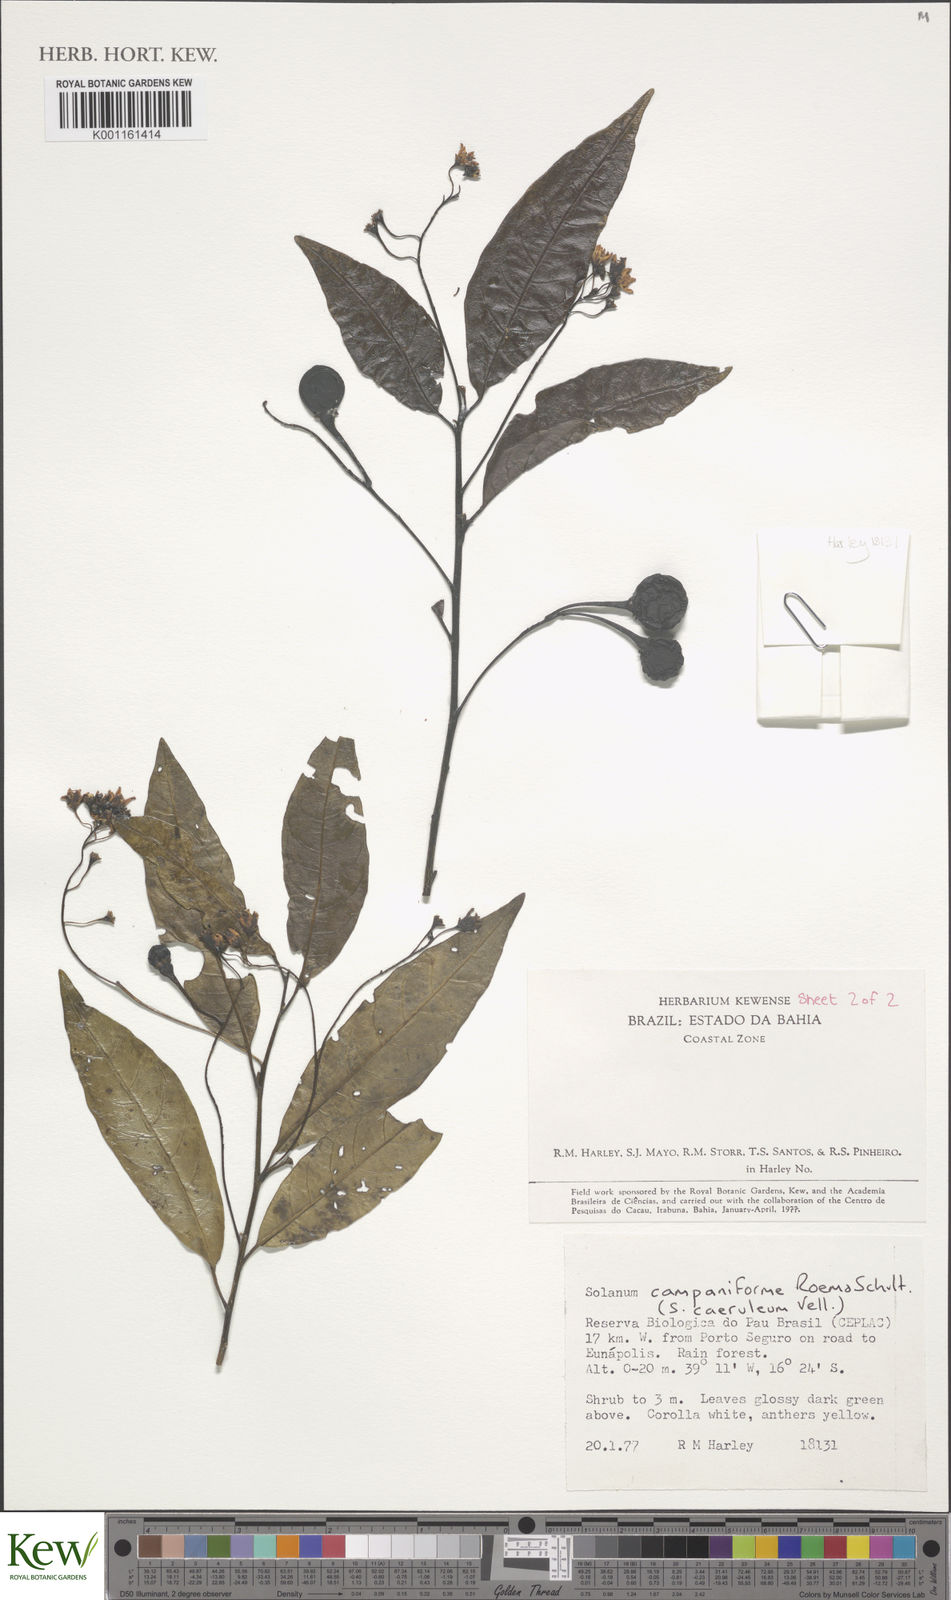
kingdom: Plantae
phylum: Tracheophyta
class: Magnoliopsida
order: Solanales
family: Solanaceae
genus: Solanum
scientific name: Solanum campaniforme
